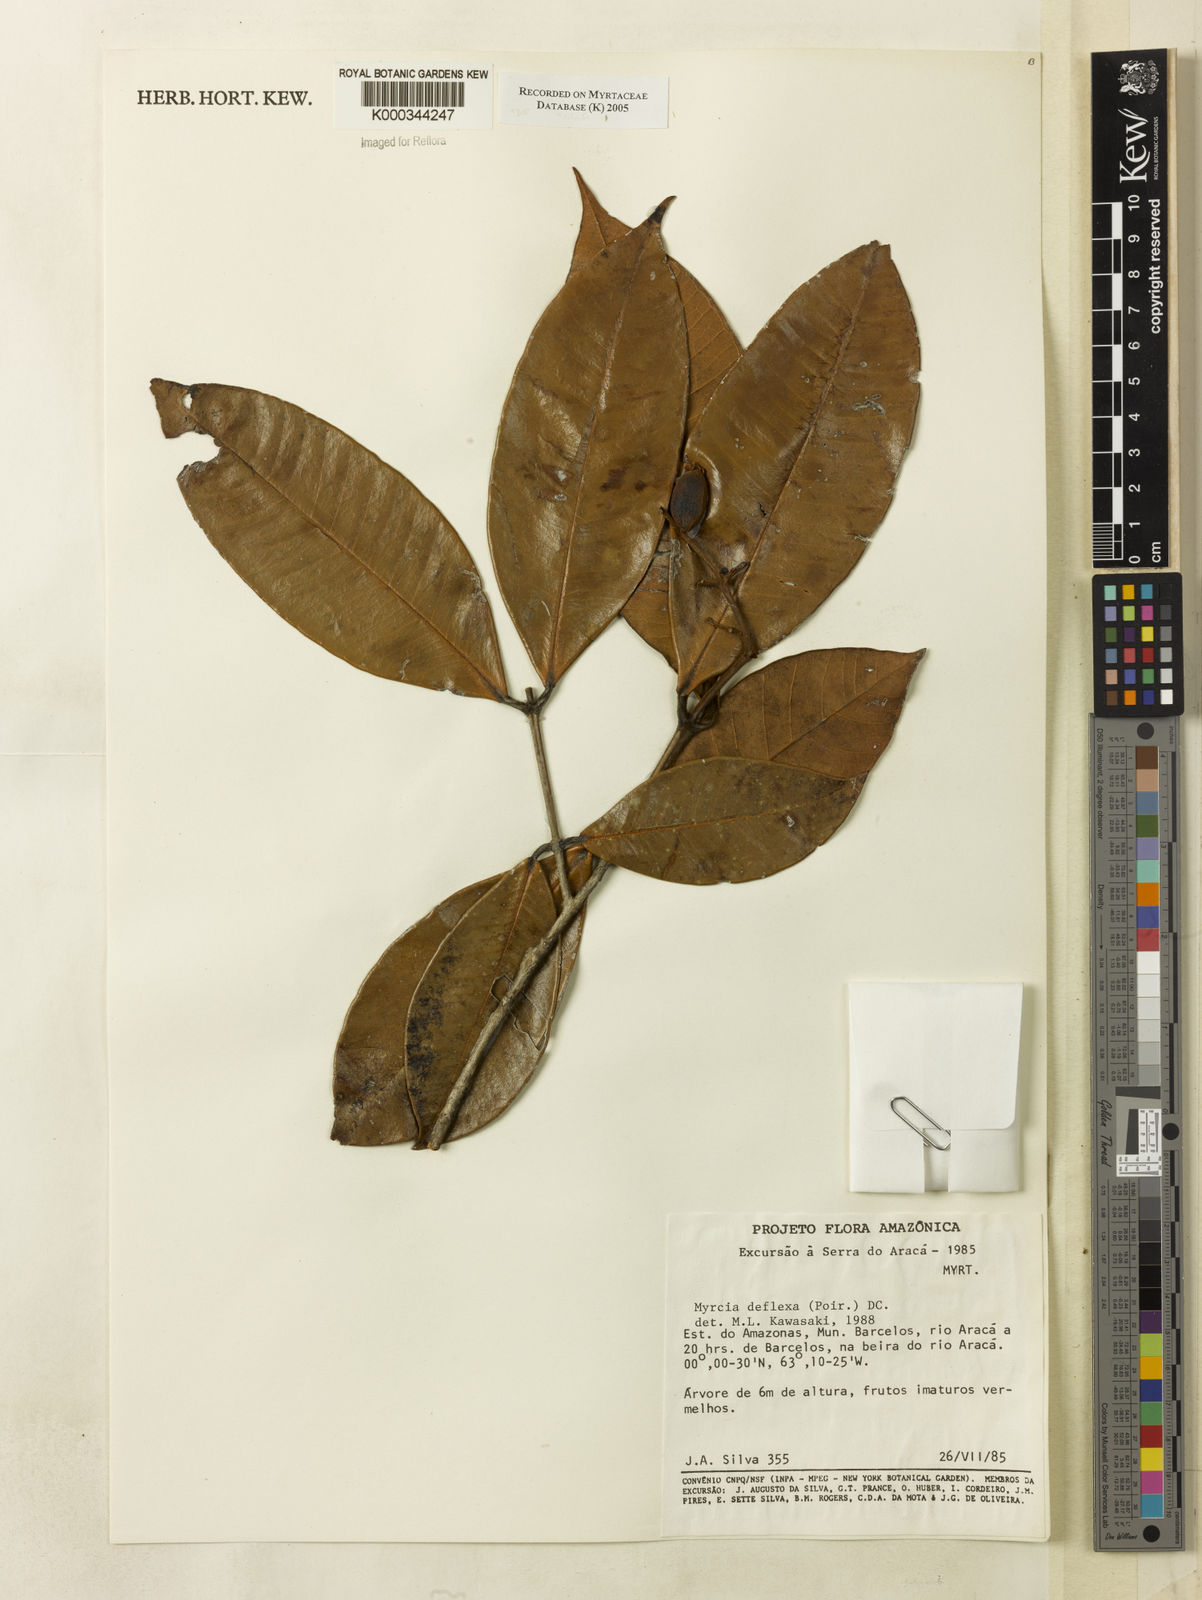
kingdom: Plantae
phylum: Tracheophyta
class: Magnoliopsida
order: Myrtales
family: Myrtaceae
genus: Myrcia
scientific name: Myrcia deflexa
